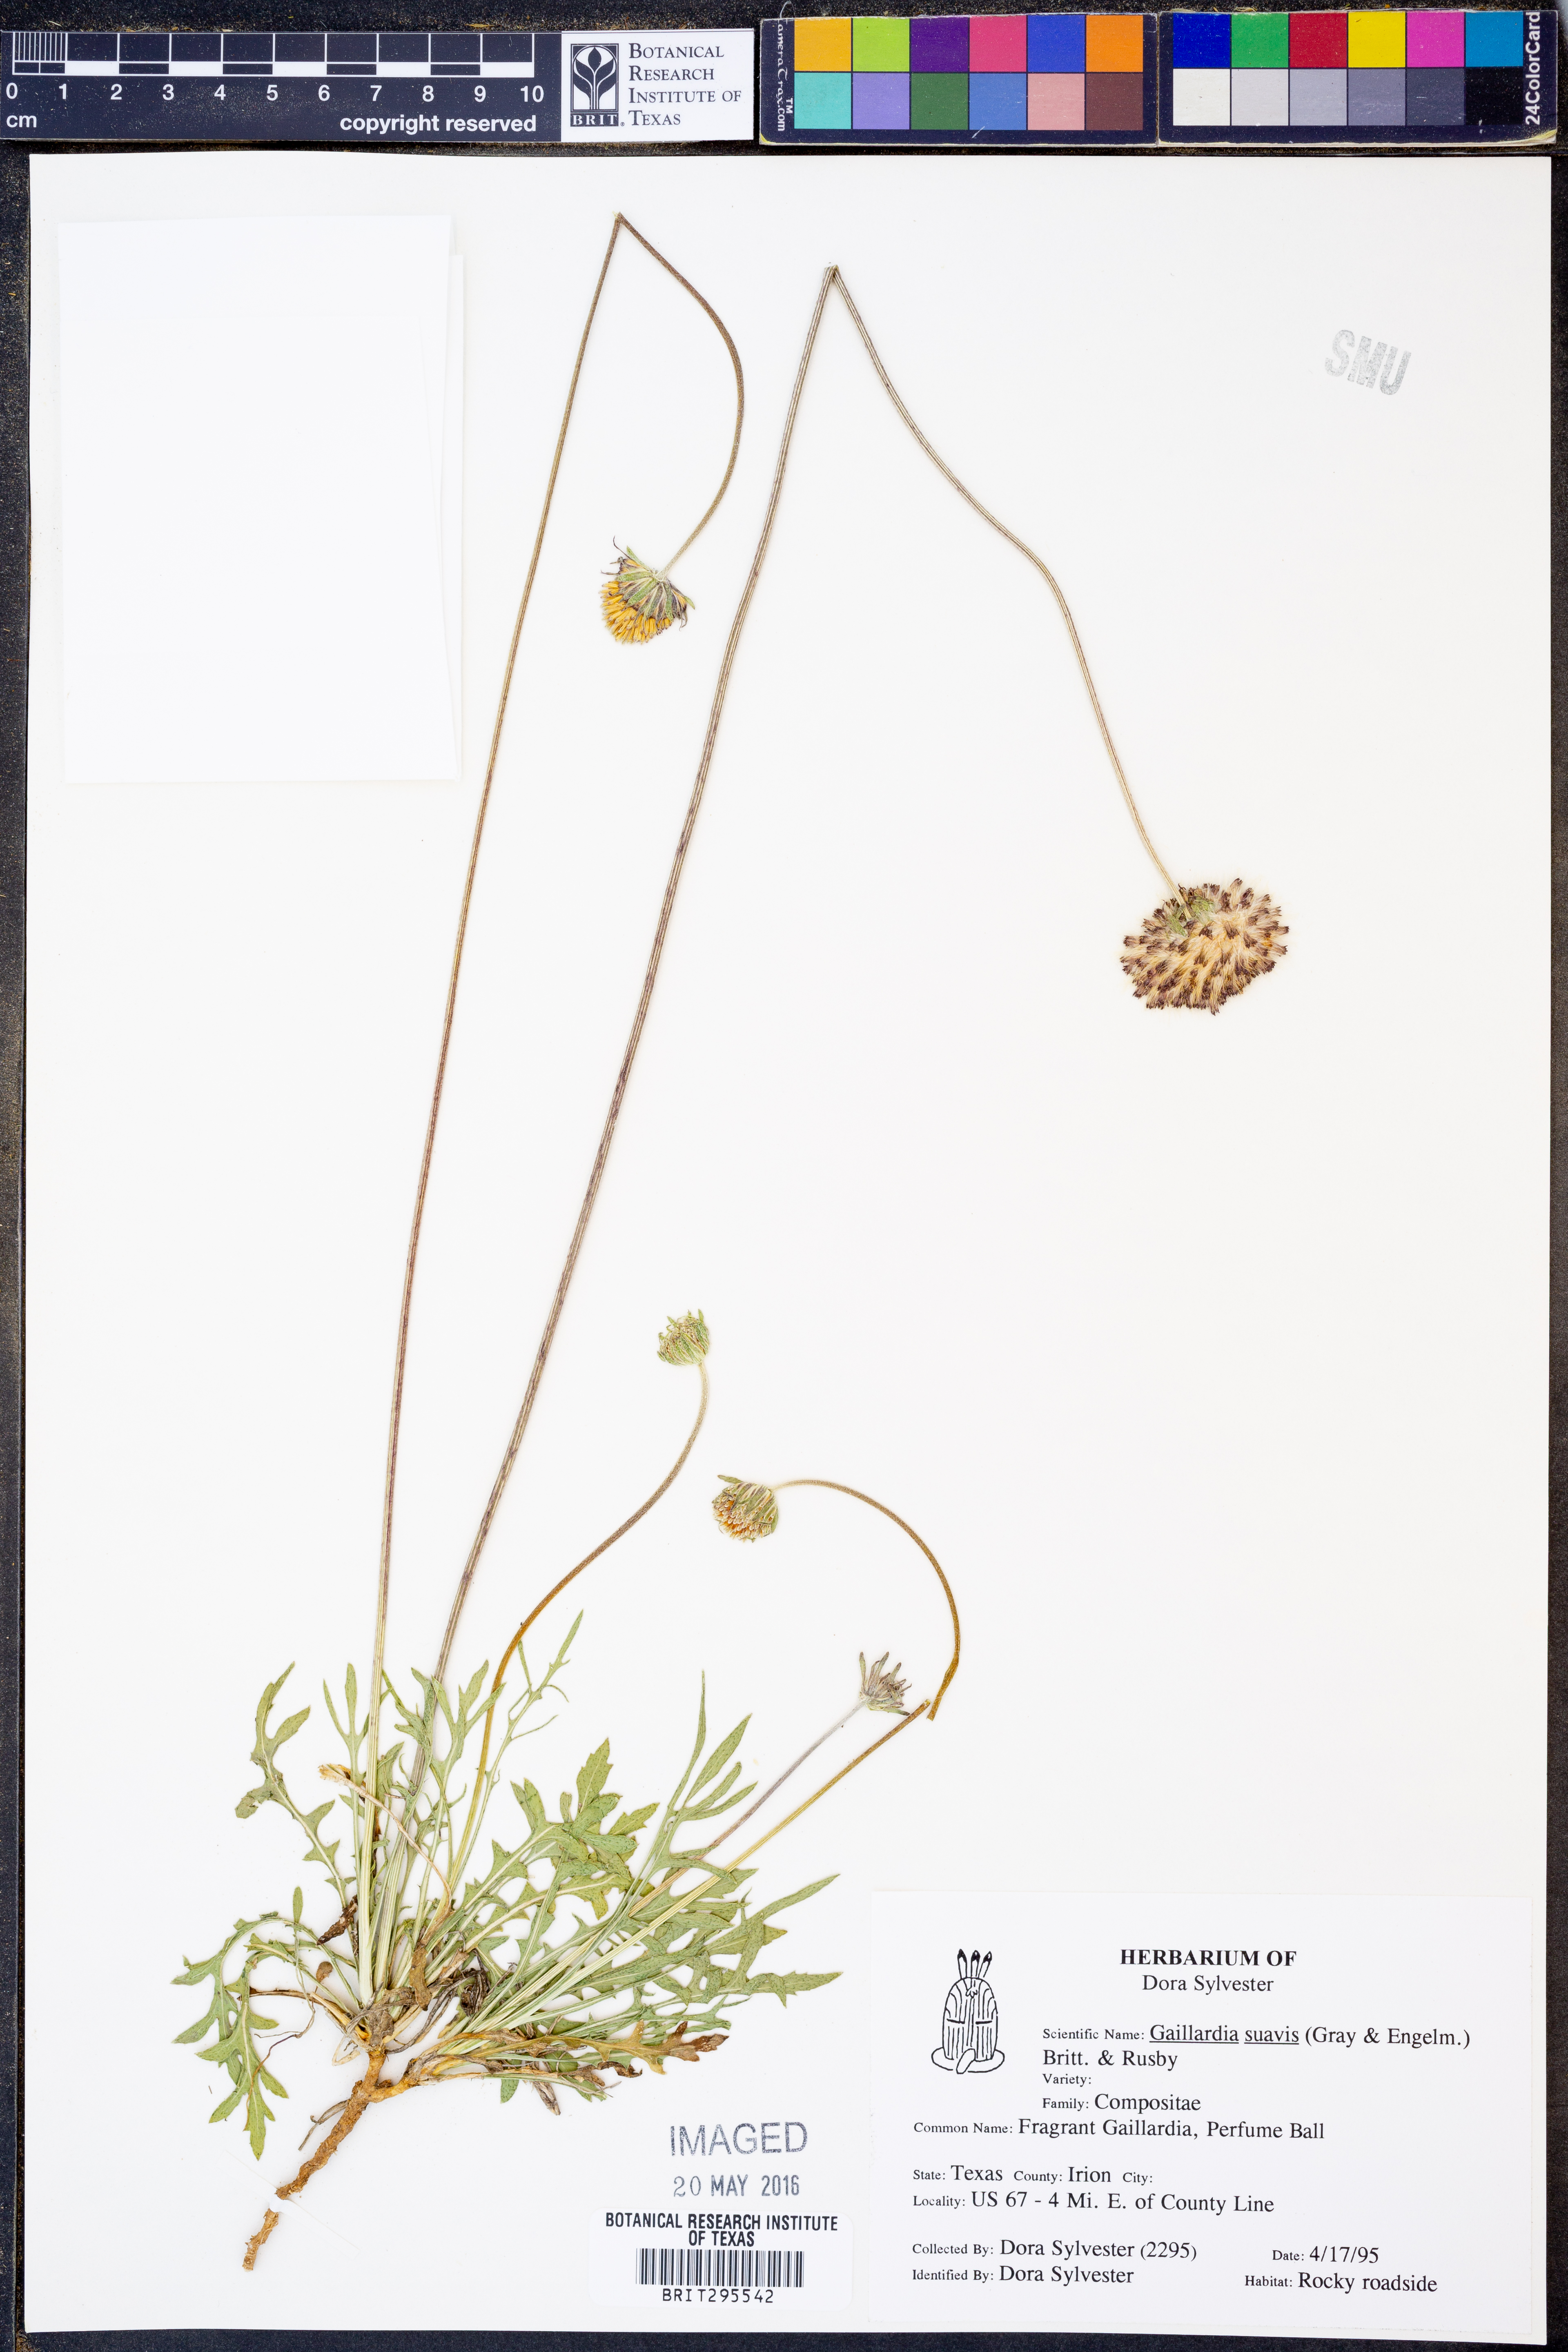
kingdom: Plantae
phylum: Tracheophyta
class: Magnoliopsida
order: Asterales
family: Asteraceae
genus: Gaillardia
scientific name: Gaillardia suavis
